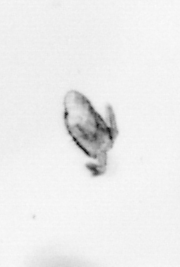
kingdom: Animalia
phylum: Arthropoda
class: Copepoda
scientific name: Copepoda
